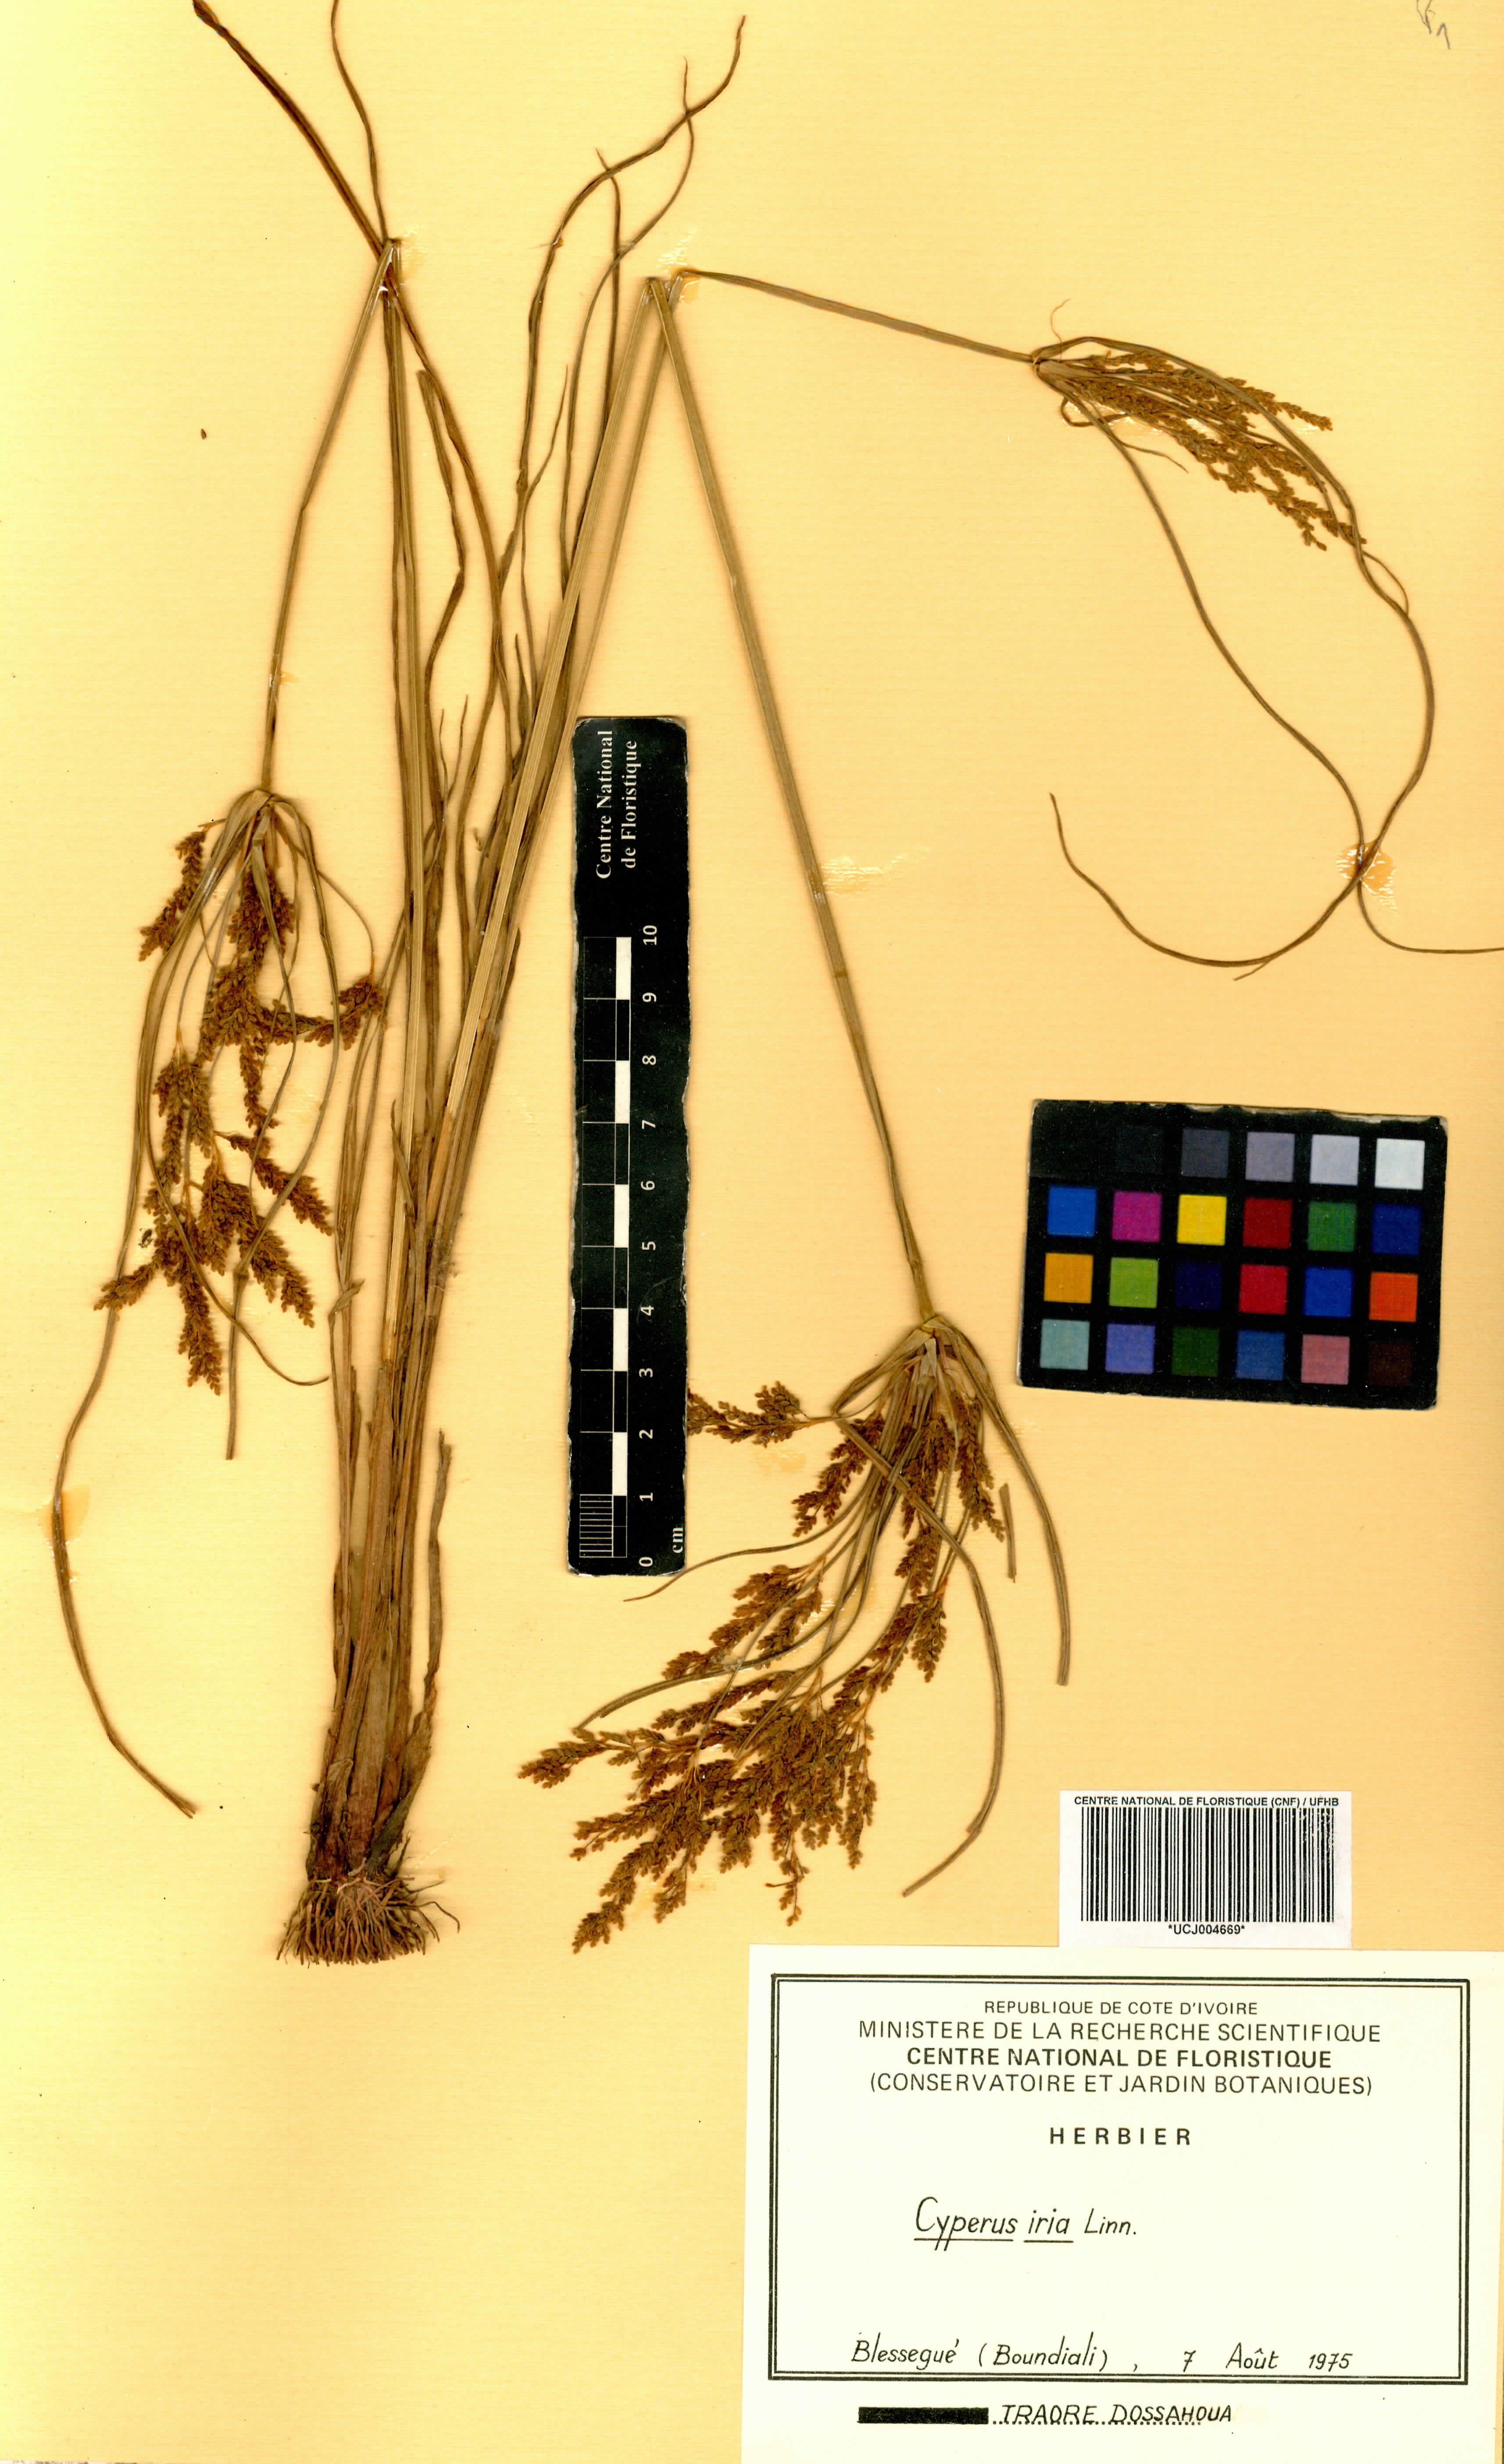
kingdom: Plantae
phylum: Tracheophyta
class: Liliopsida
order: Poales
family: Cyperaceae
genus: Cyperus
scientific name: Cyperus iria
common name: Ricefield flatsedge
